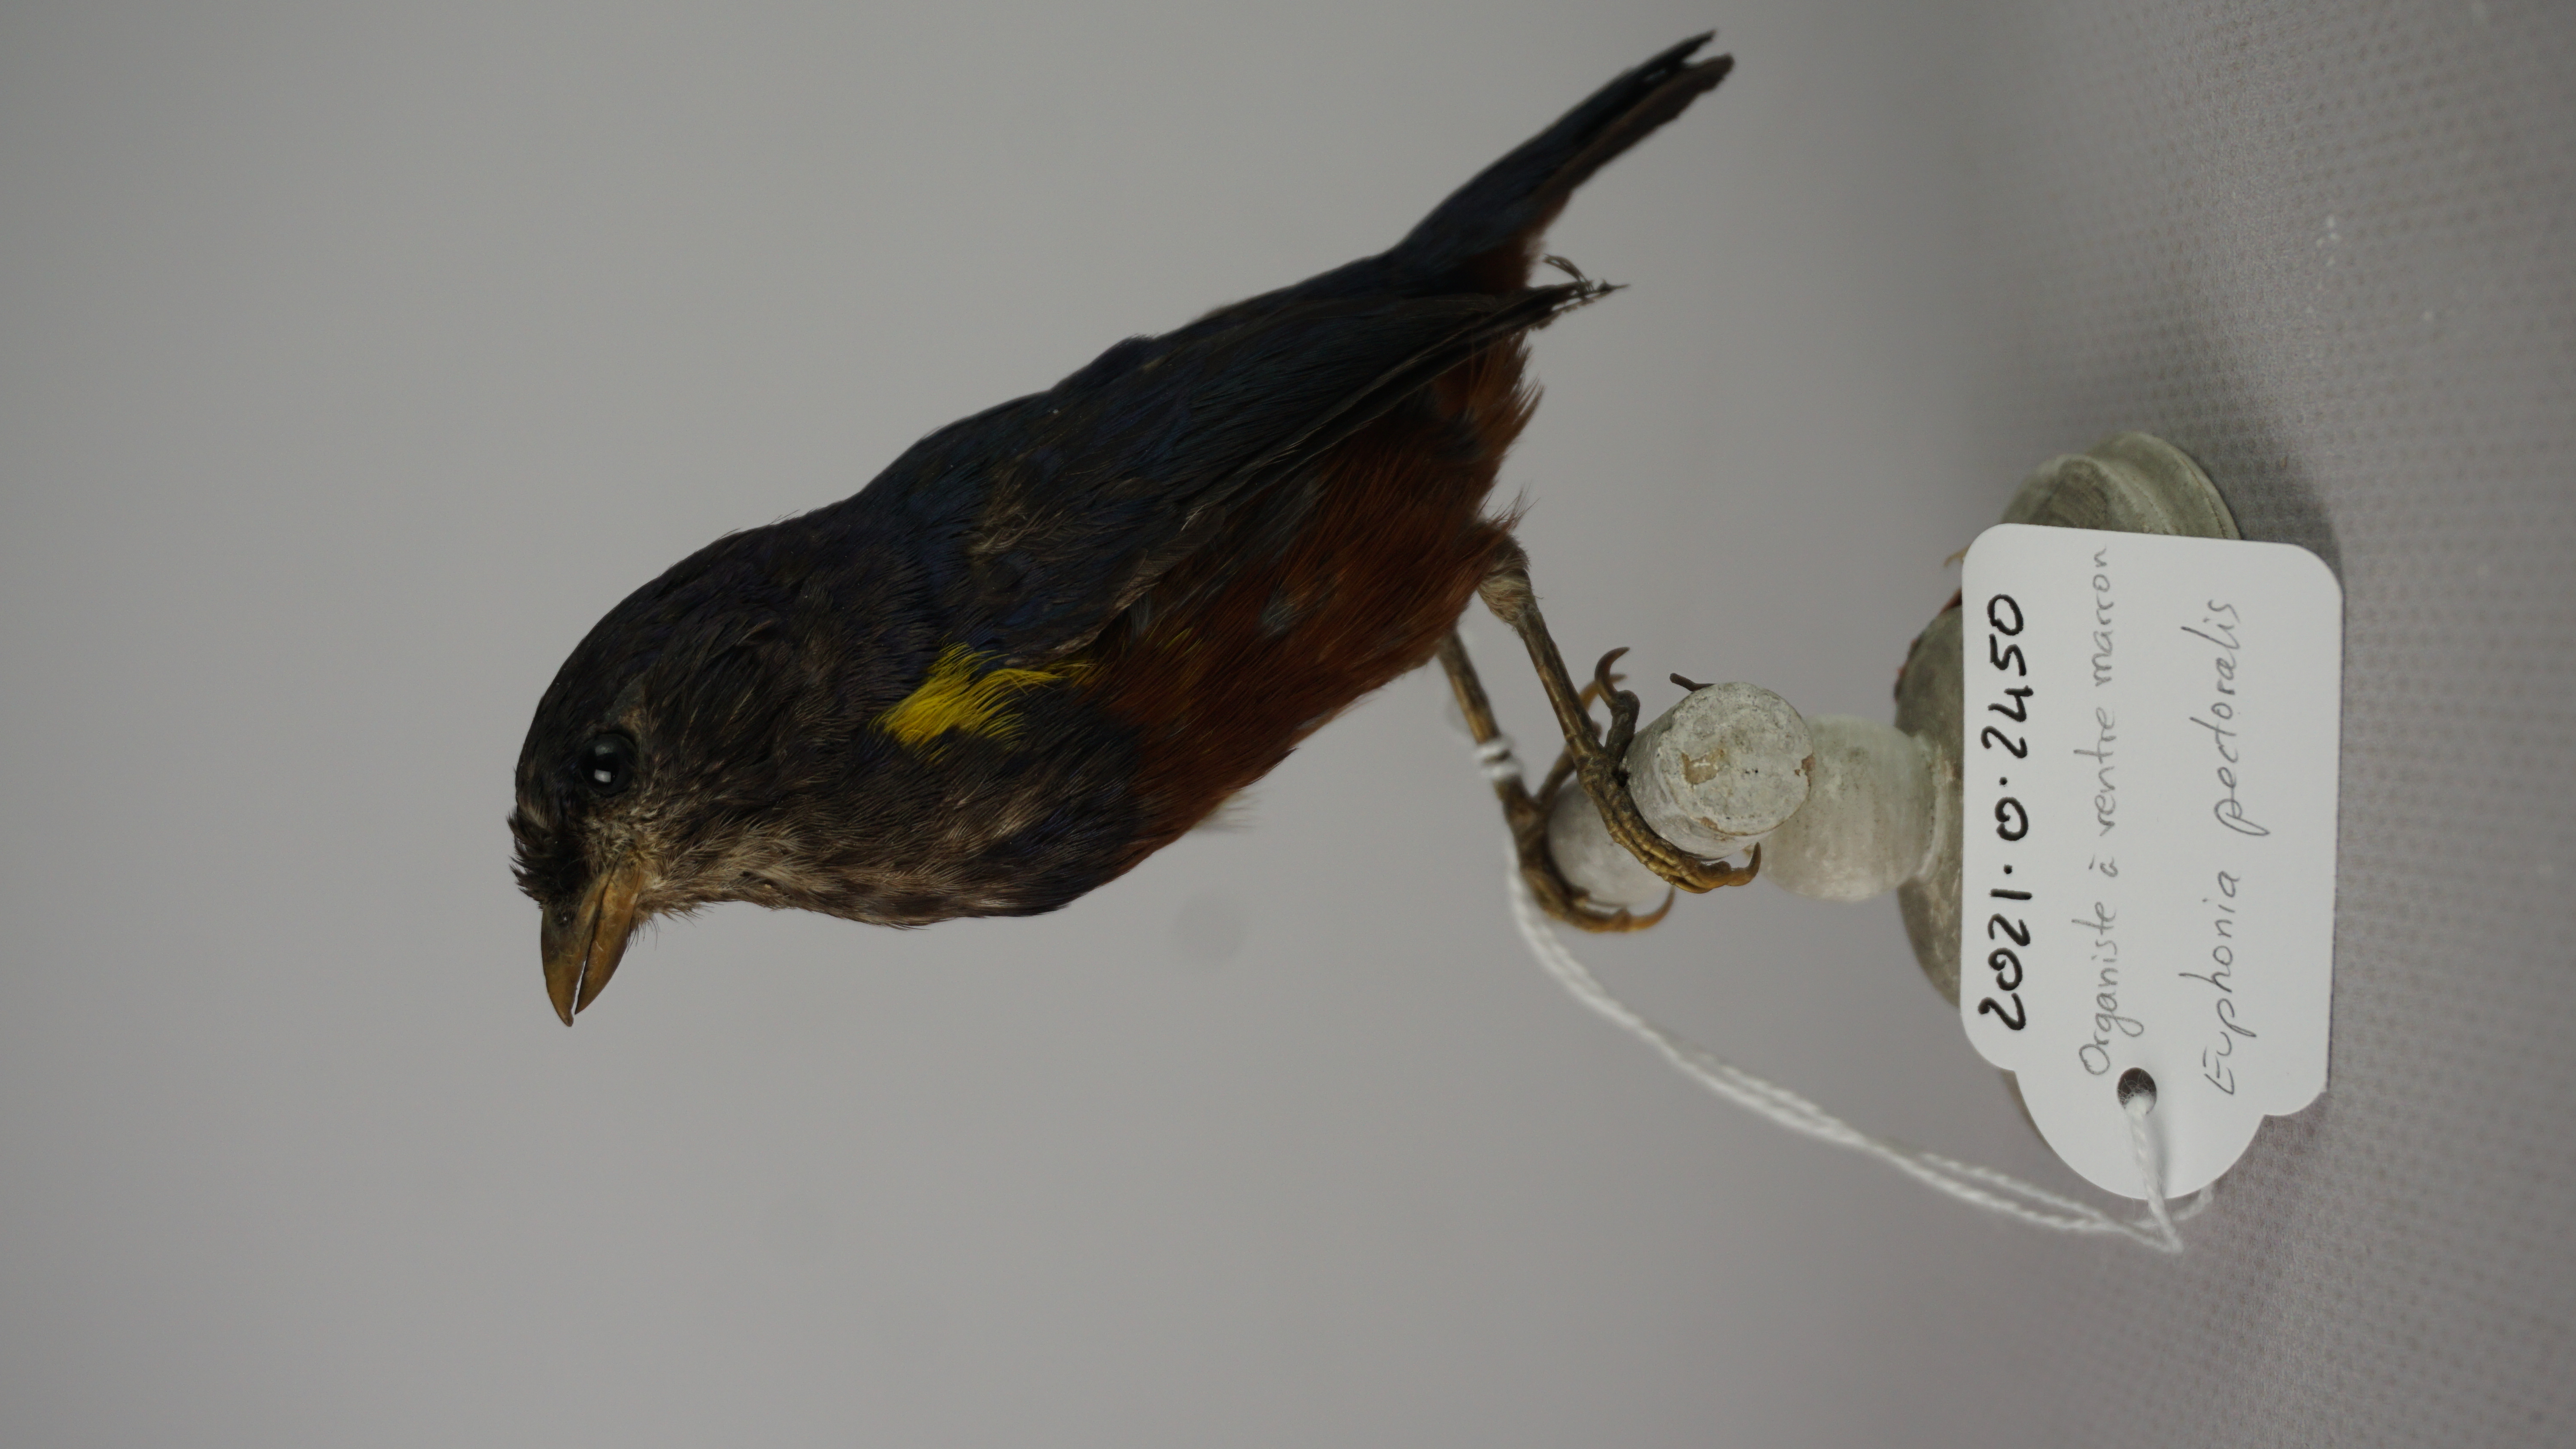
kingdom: Animalia
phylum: Chordata
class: Aves
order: Passeriformes
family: Fringillidae
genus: Euphonia
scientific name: Euphonia pectoralis
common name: Chestnut-bellied euphonia
